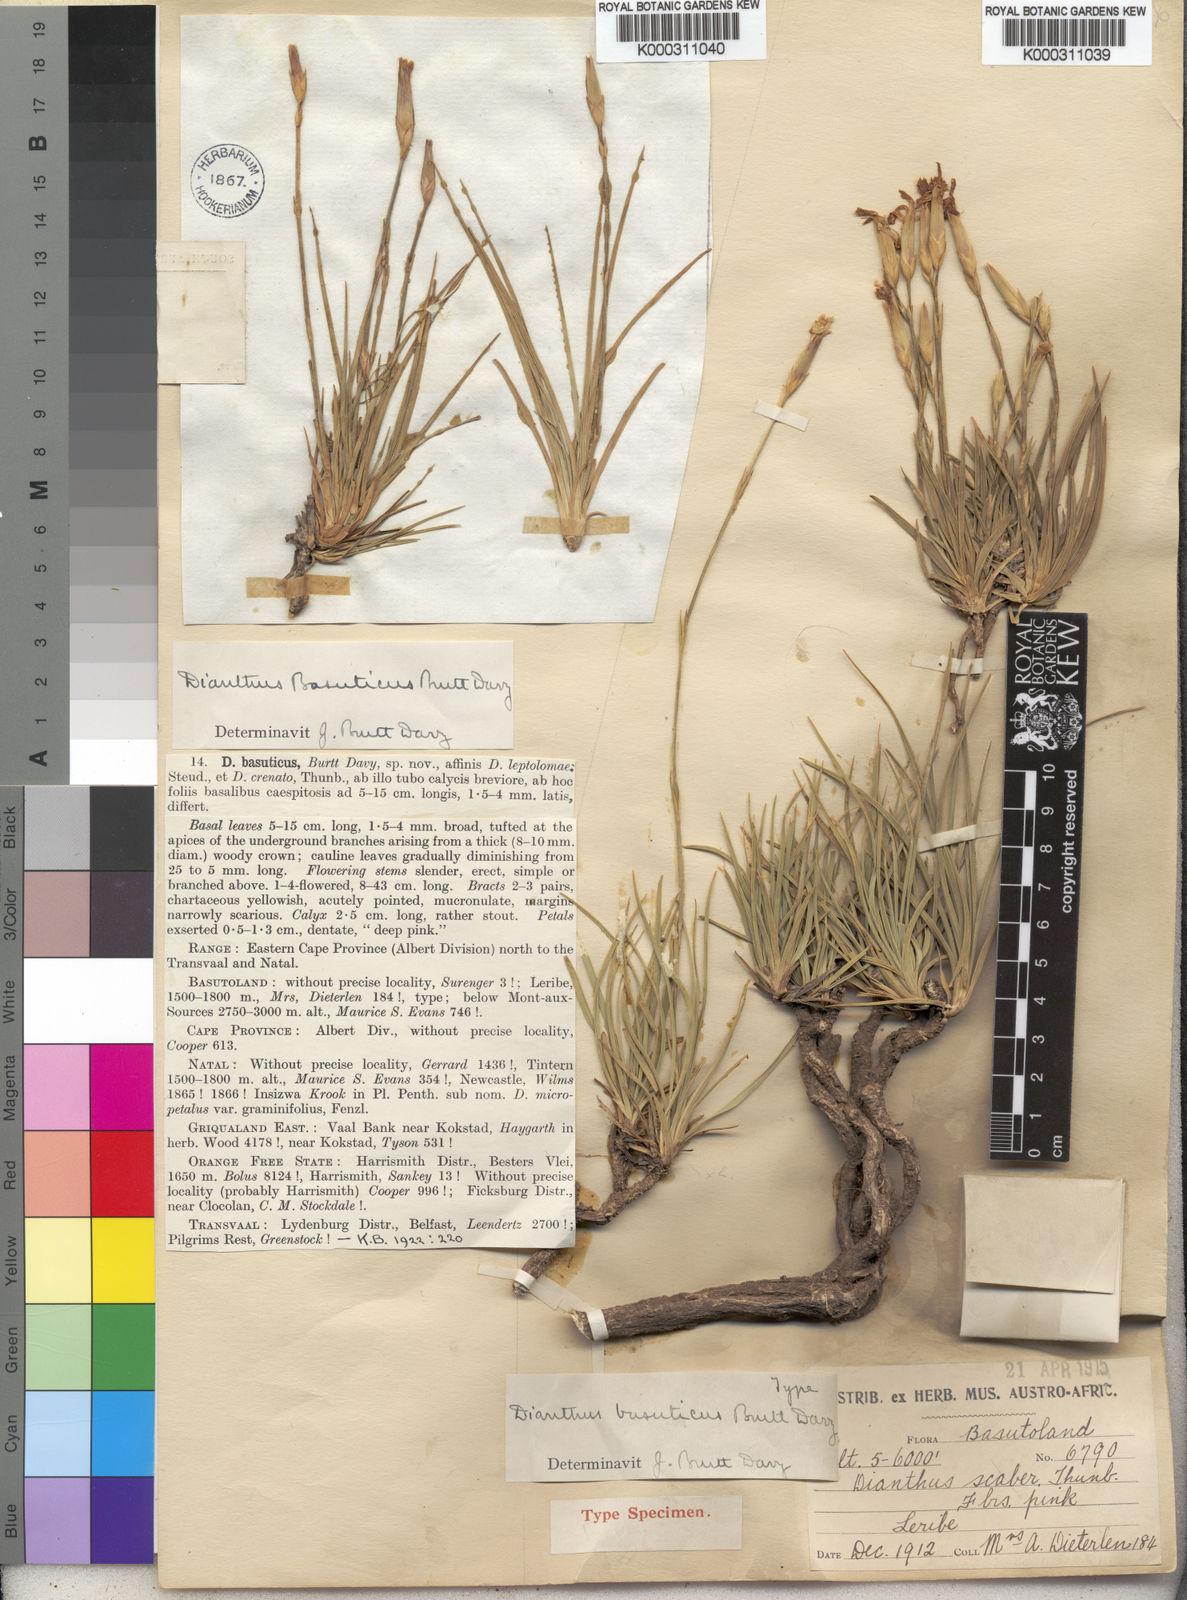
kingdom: Plantae
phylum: Tracheophyta
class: Magnoliopsida
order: Caryophyllales
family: Caryophyllaceae
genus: Dianthus
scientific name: Dianthus basuticus
